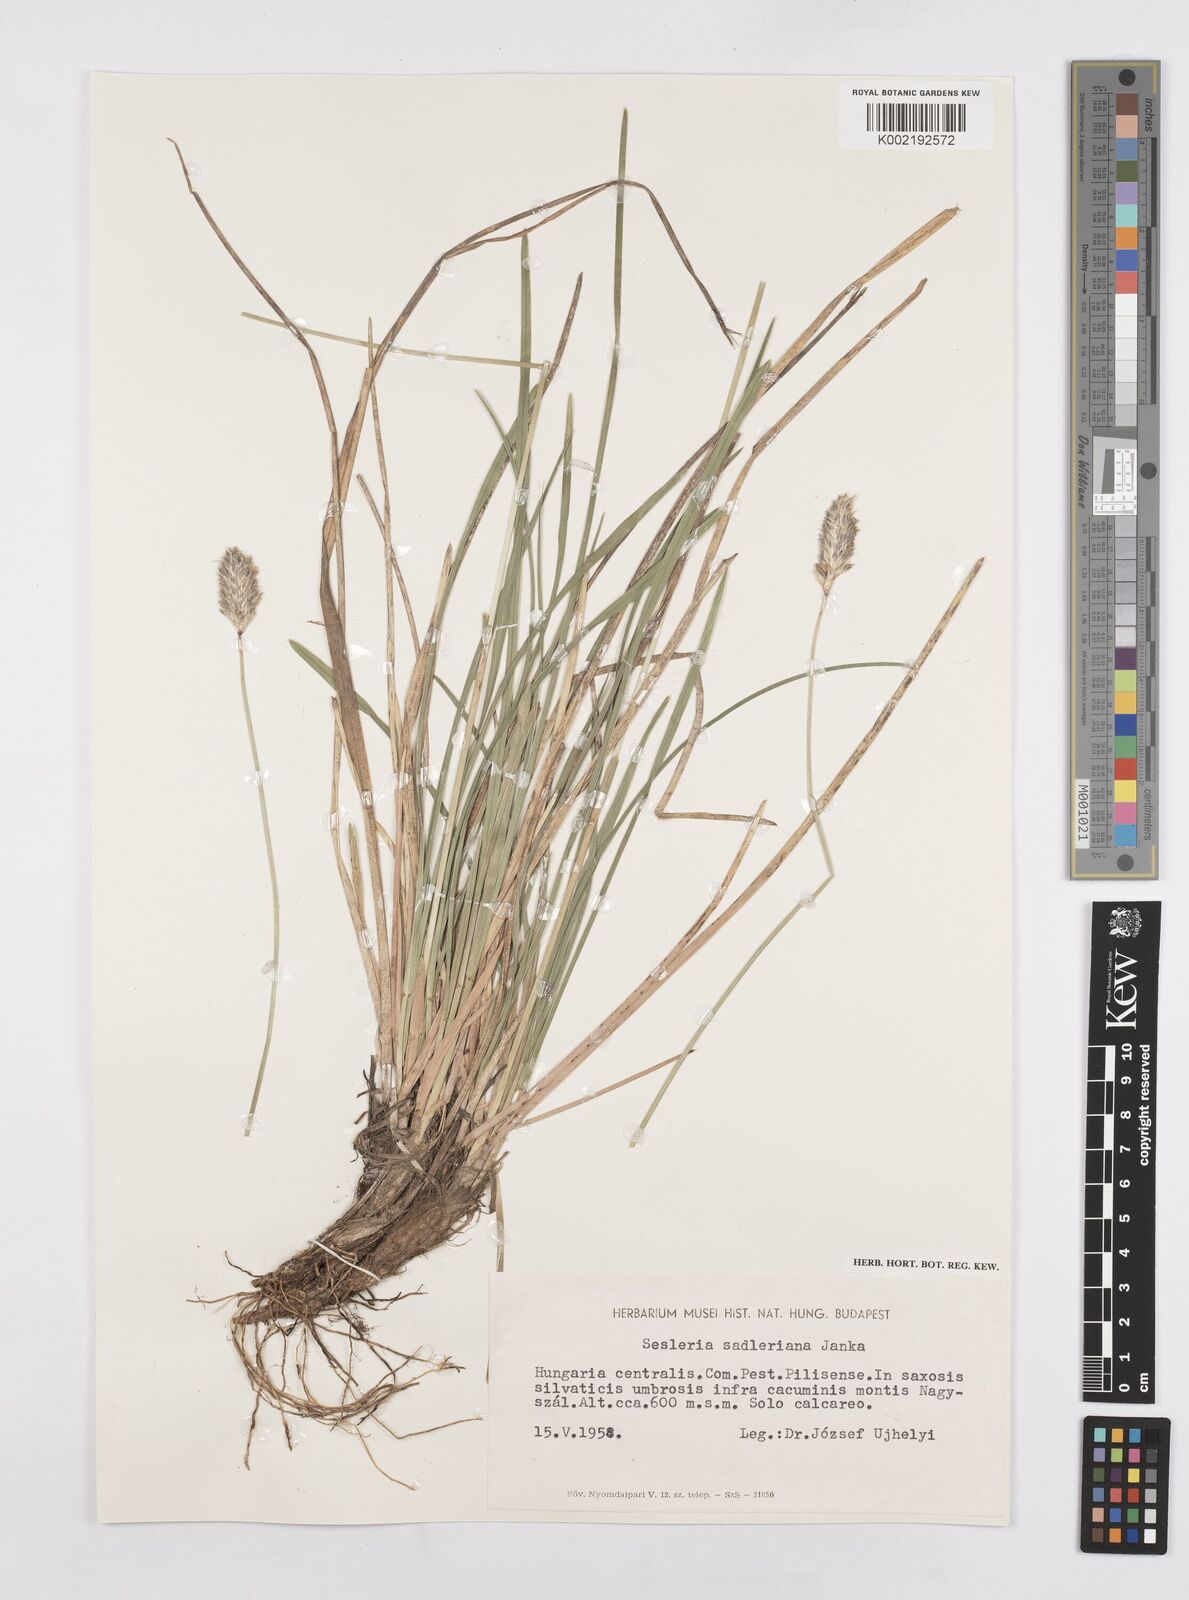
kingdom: Plantae
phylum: Tracheophyta
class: Liliopsida
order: Poales
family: Poaceae
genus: Sesleria
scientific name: Sesleria sadleriana
